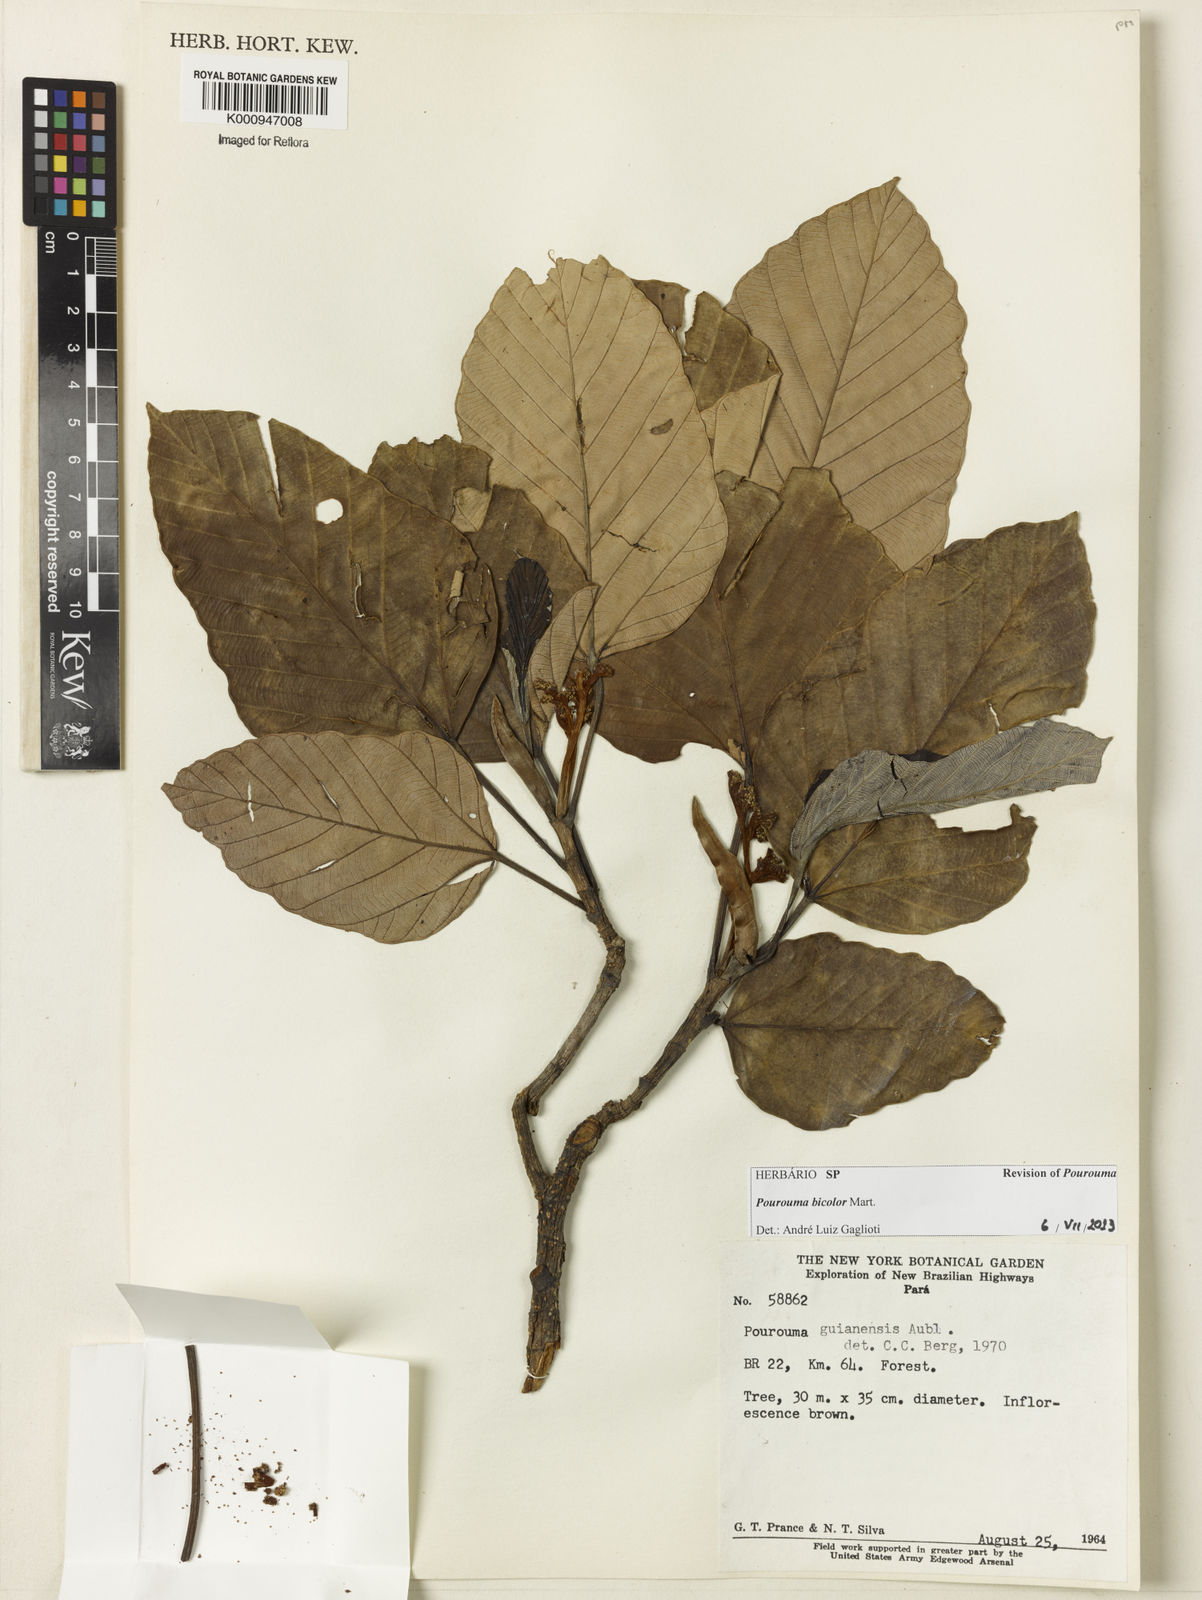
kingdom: Plantae
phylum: Tracheophyta
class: Magnoliopsida
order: Rosales
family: Urticaceae
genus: Pourouma
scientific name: Pourouma bicolor
